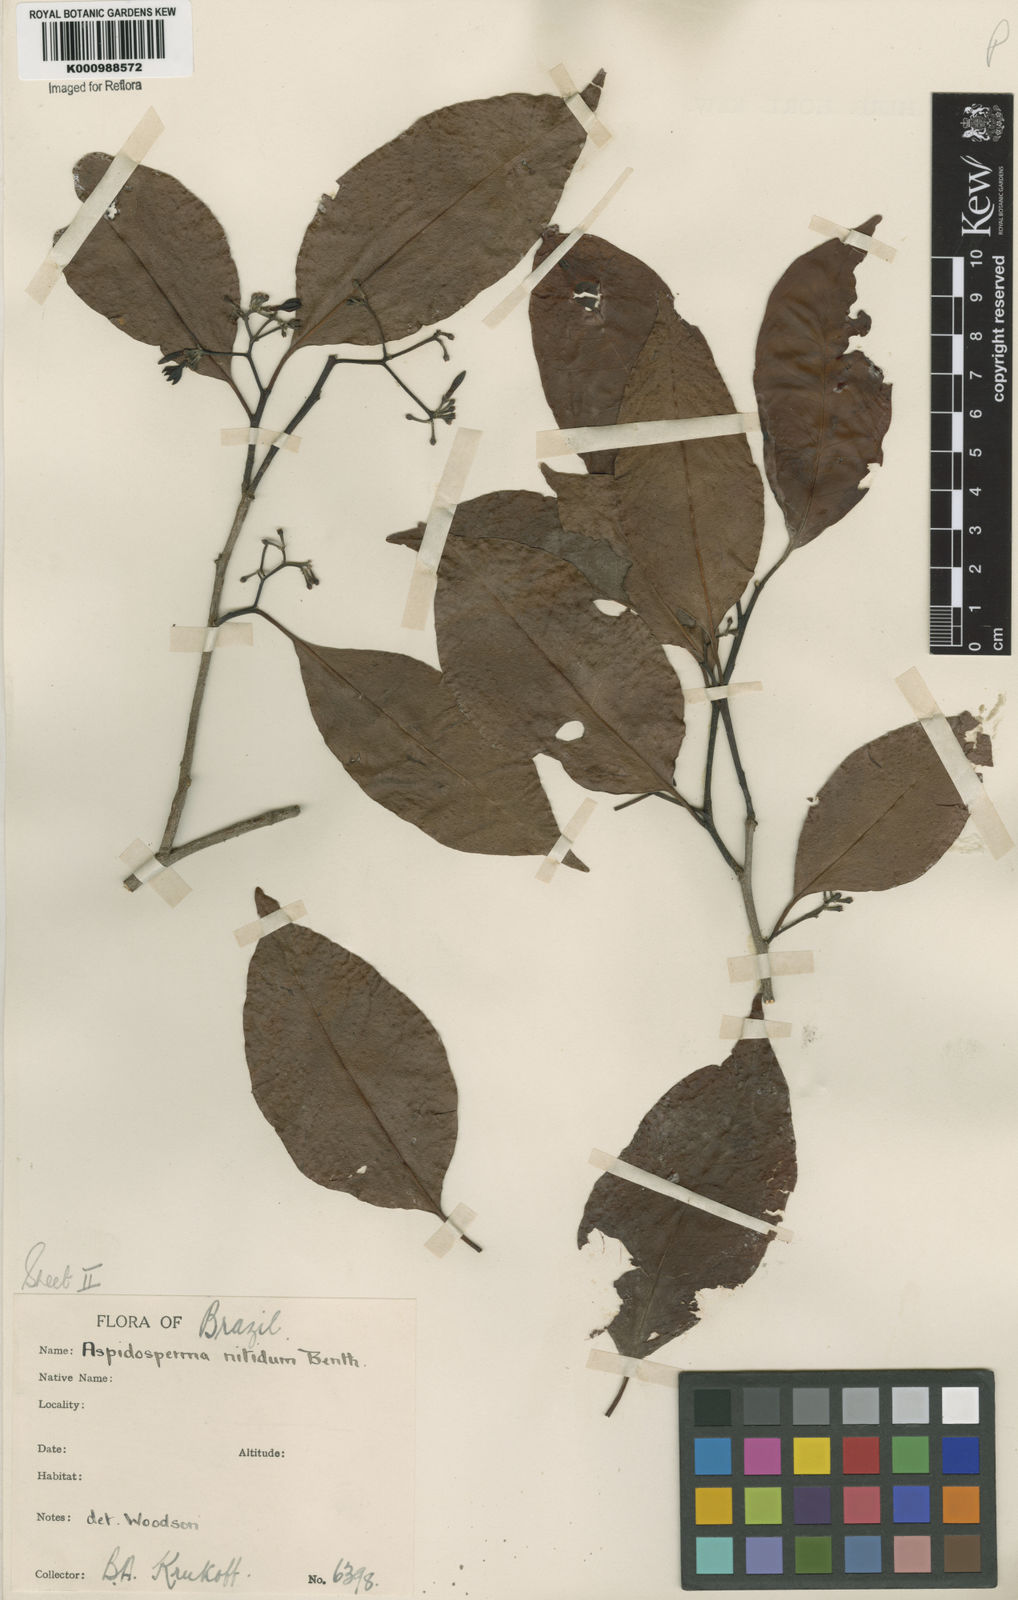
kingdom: Plantae
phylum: Tracheophyta
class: Magnoliopsida
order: Gentianales
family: Apocynaceae
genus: Aspidosperma
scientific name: Aspidosperma
